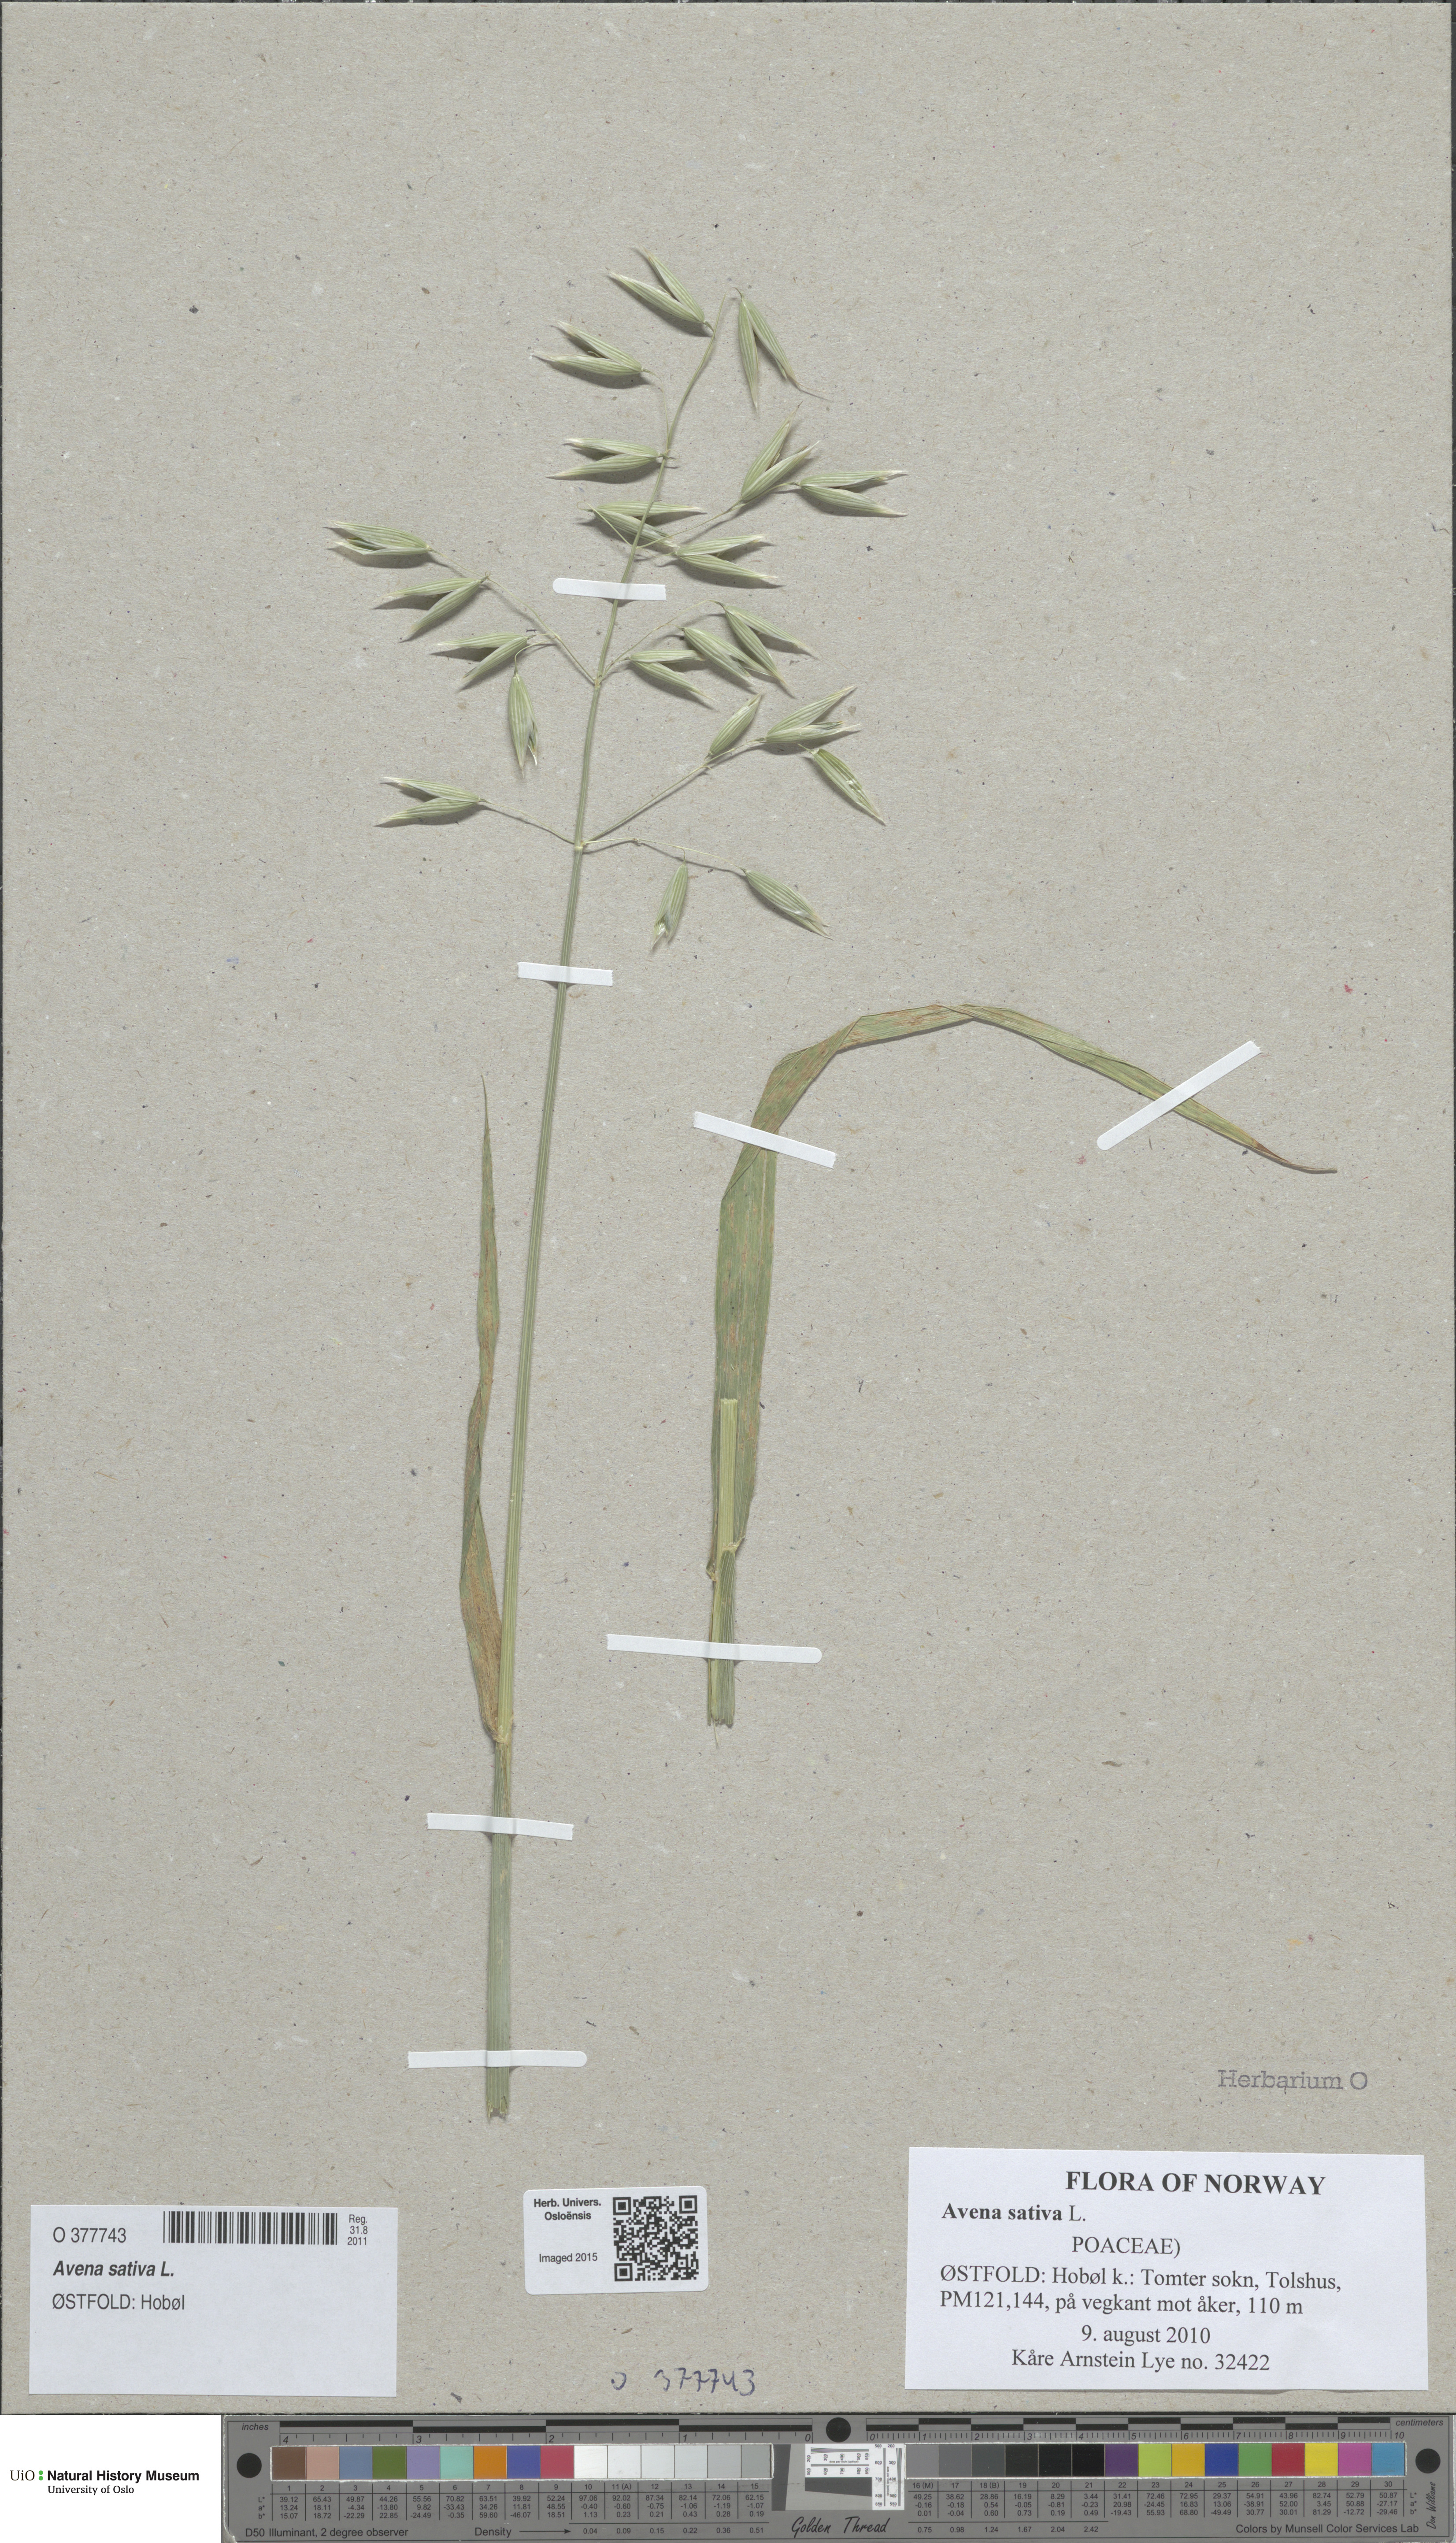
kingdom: Plantae
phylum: Tracheophyta
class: Liliopsida
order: Poales
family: Poaceae
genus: Avena
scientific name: Avena sativa
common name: Oat
